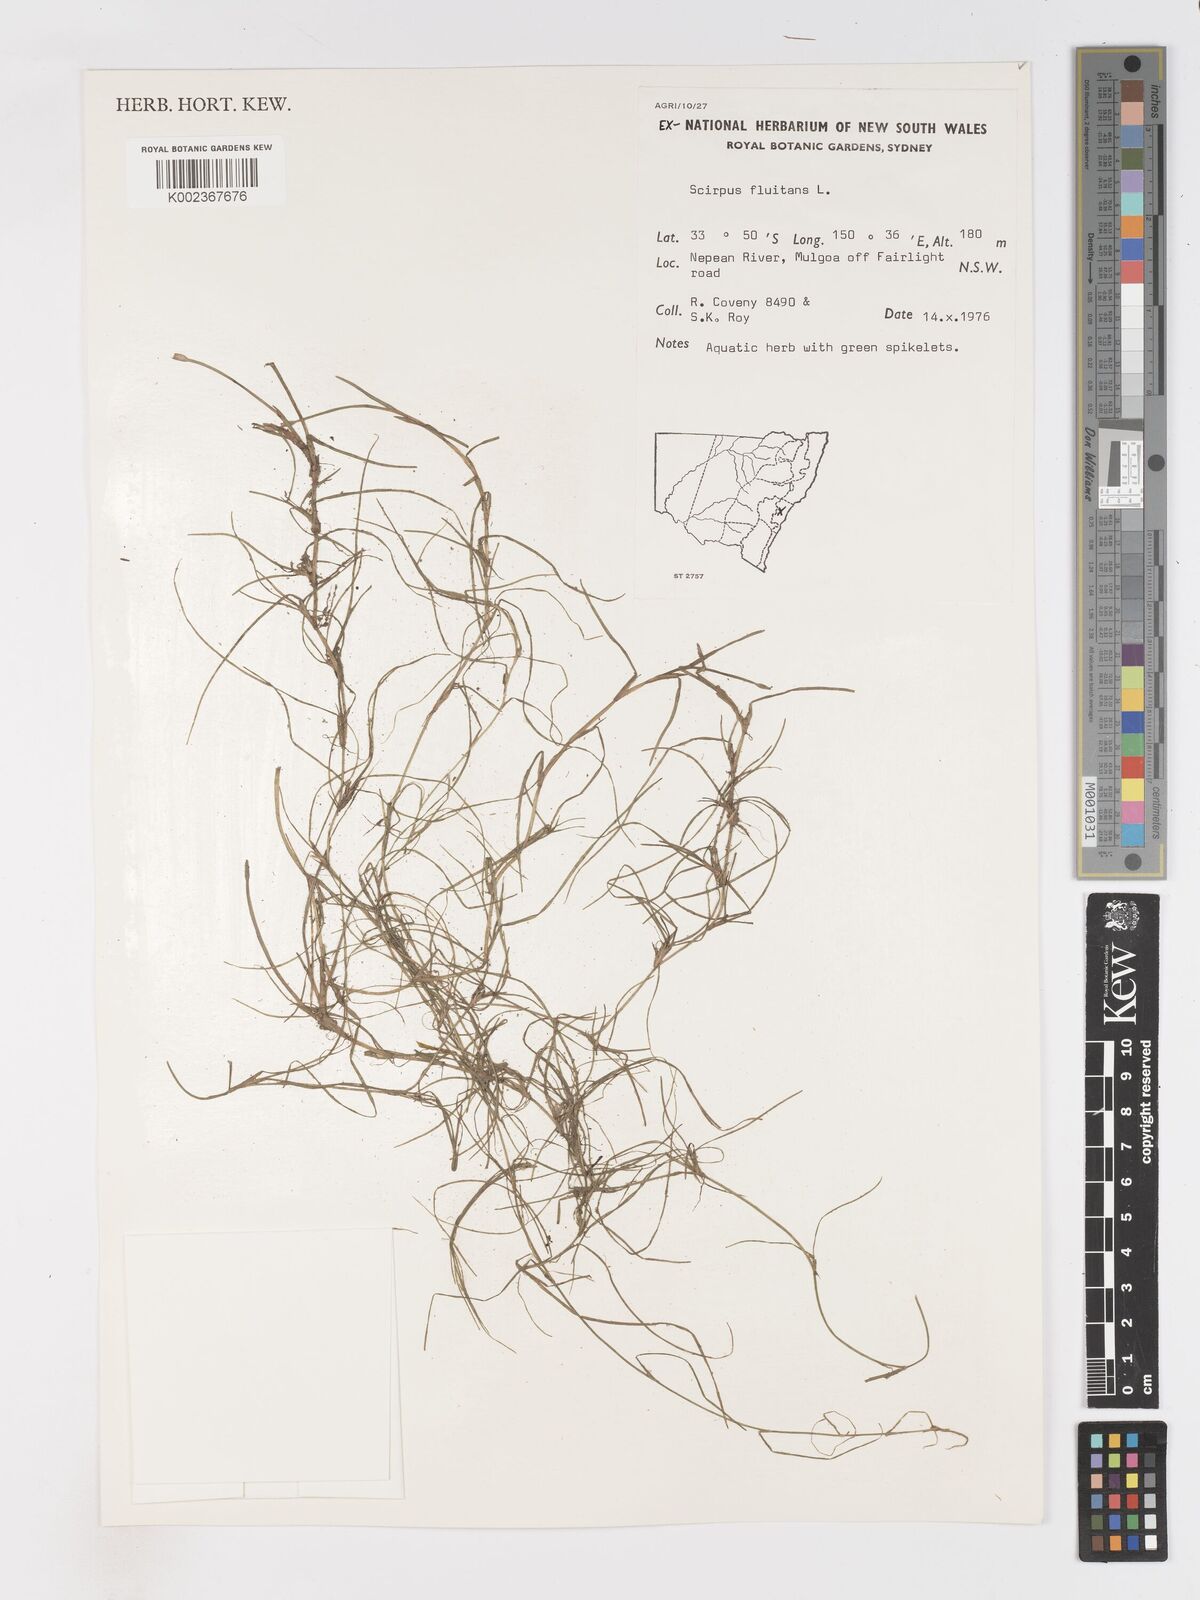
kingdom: Plantae
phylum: Tracheophyta
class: Liliopsida
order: Poales
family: Cyperaceae
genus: Isolepis
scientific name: Isolepis fluitans
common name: Floating club-rush
